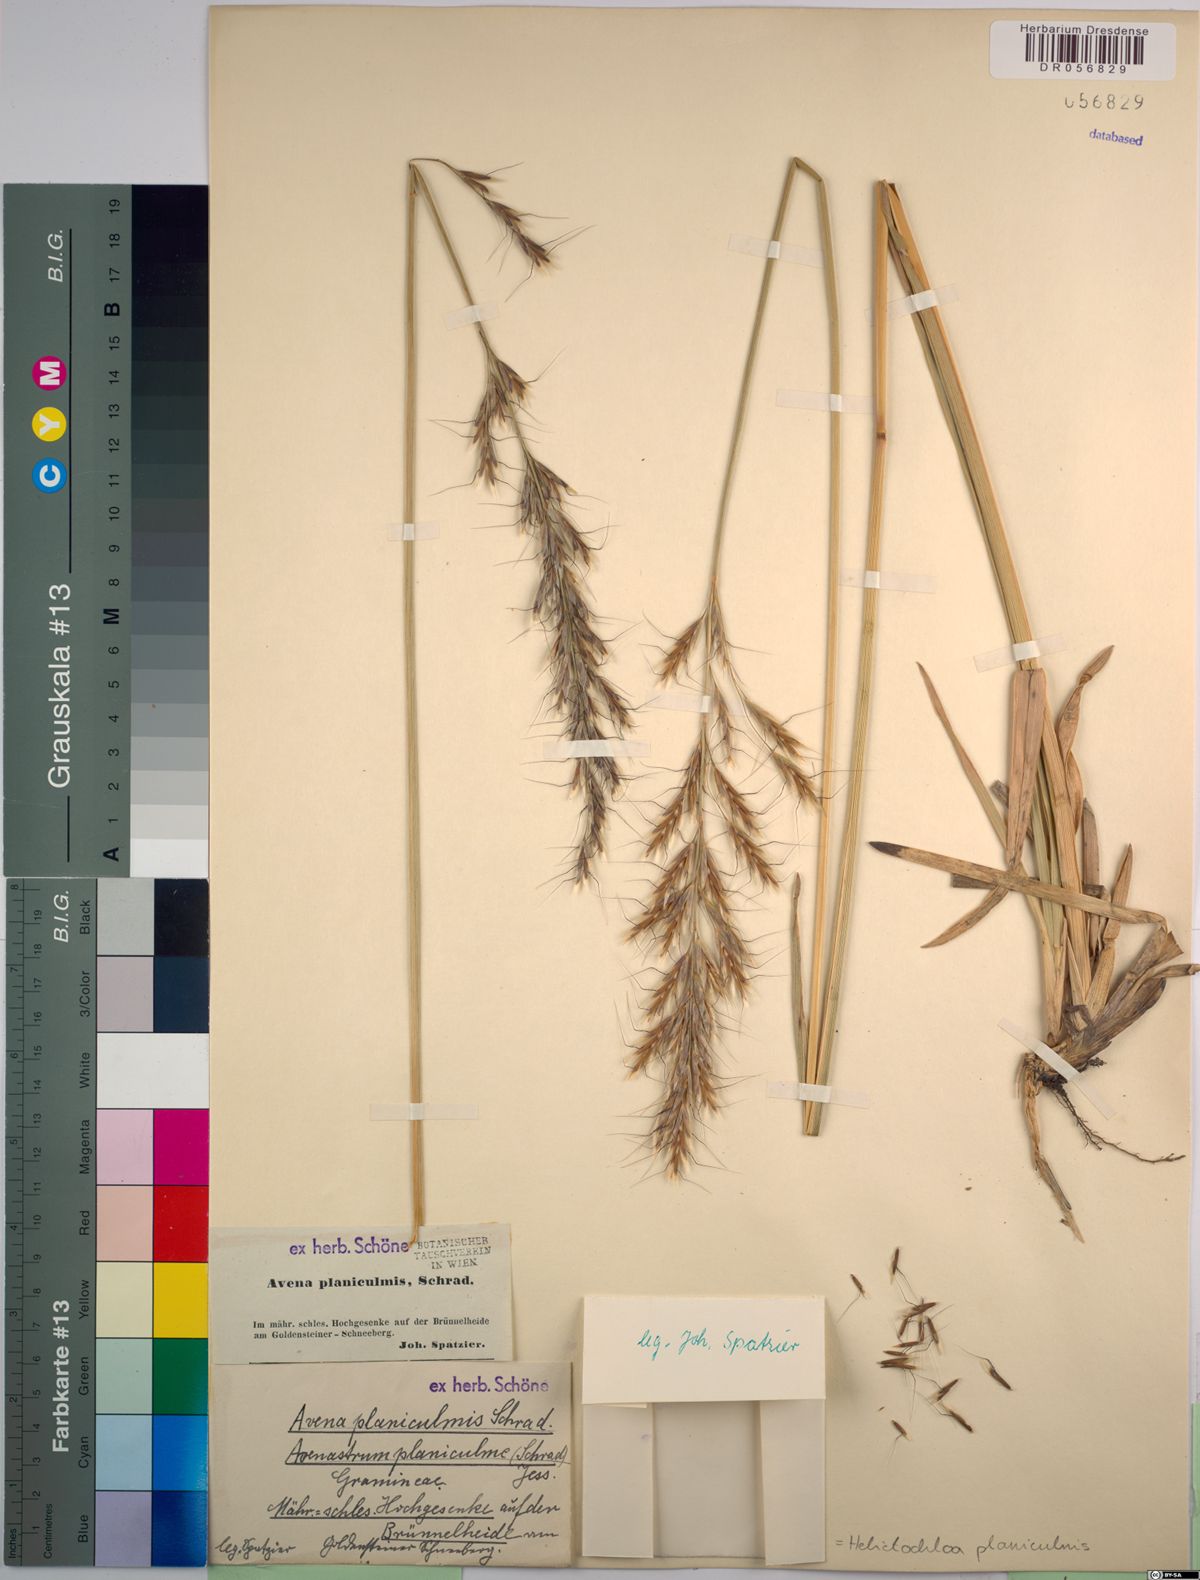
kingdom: Plantae
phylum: Tracheophyta
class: Liliopsida
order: Poales
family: Poaceae
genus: Helictochloa
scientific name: Helictochloa planiculmis
